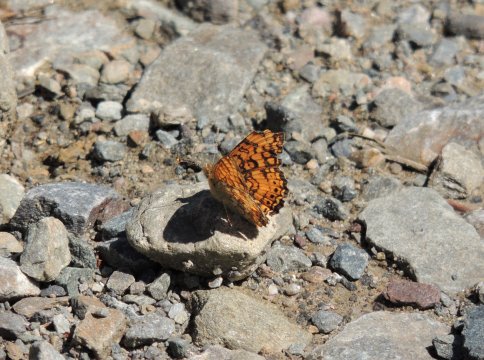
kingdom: Animalia
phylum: Arthropoda
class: Insecta
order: Lepidoptera
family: Nymphalidae
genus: Eresia
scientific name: Eresia aveyrona
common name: Mylitta Crescent
